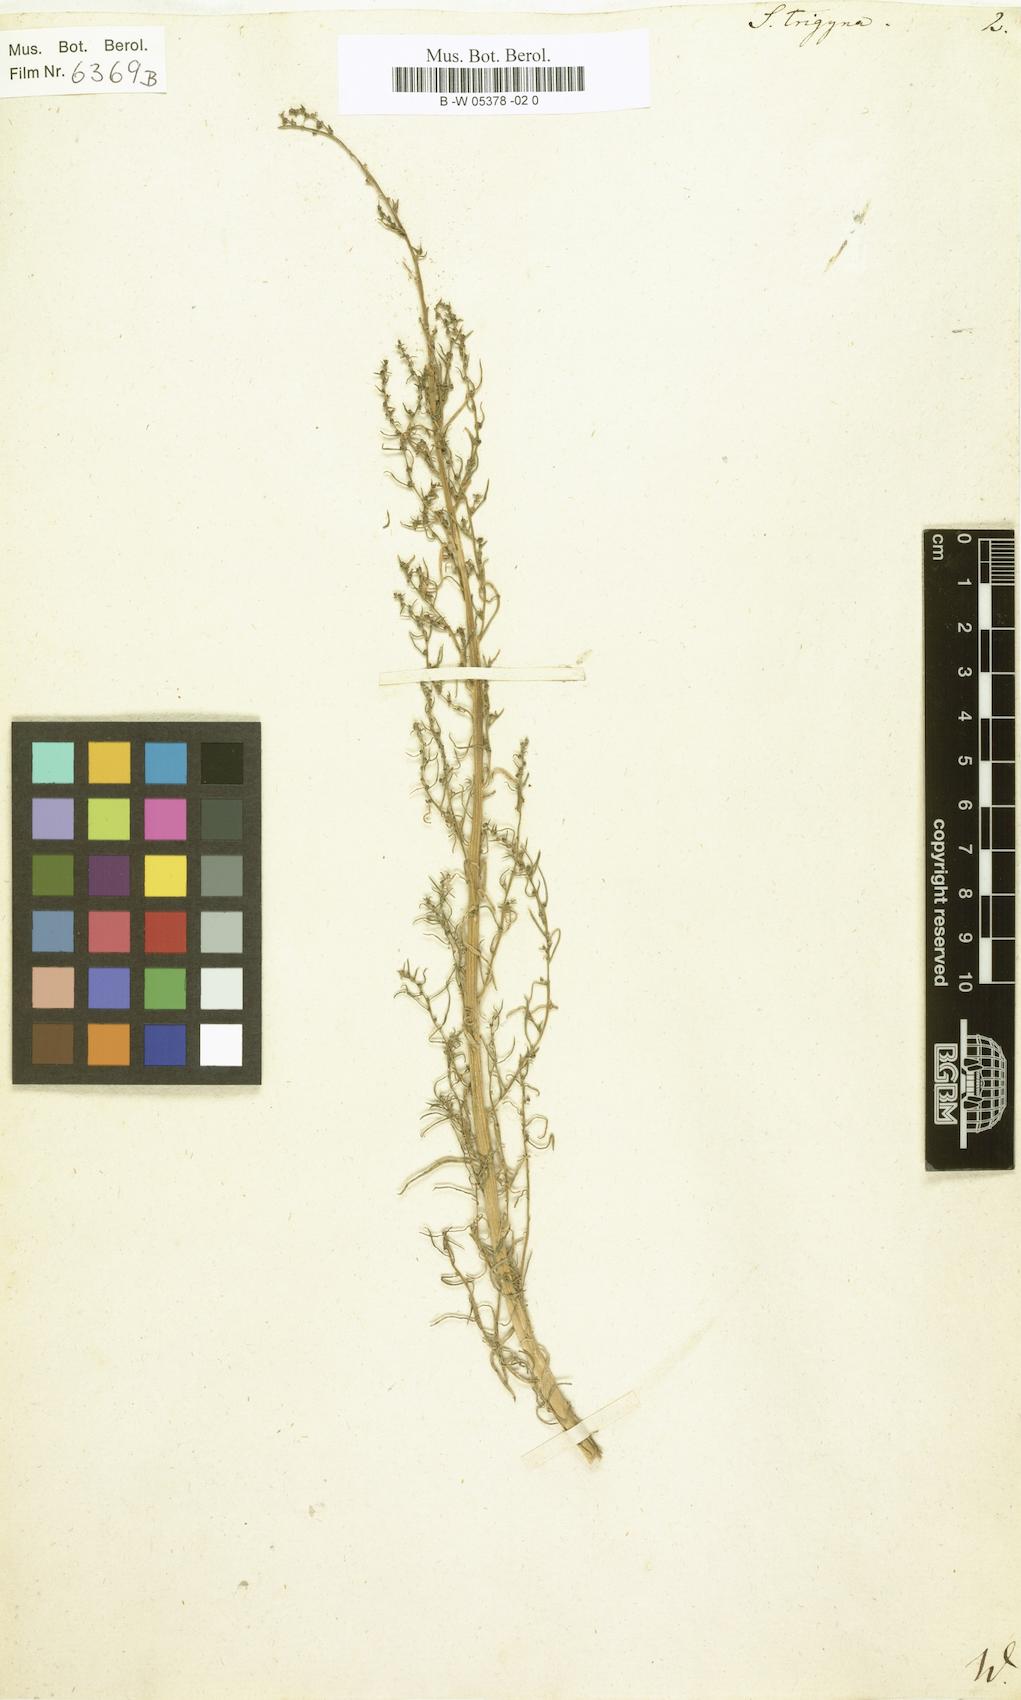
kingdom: Plantae
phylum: Tracheophyta
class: Magnoliopsida
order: Caryophyllales
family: Amaranthaceae
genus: Suaeda
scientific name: Suaeda
